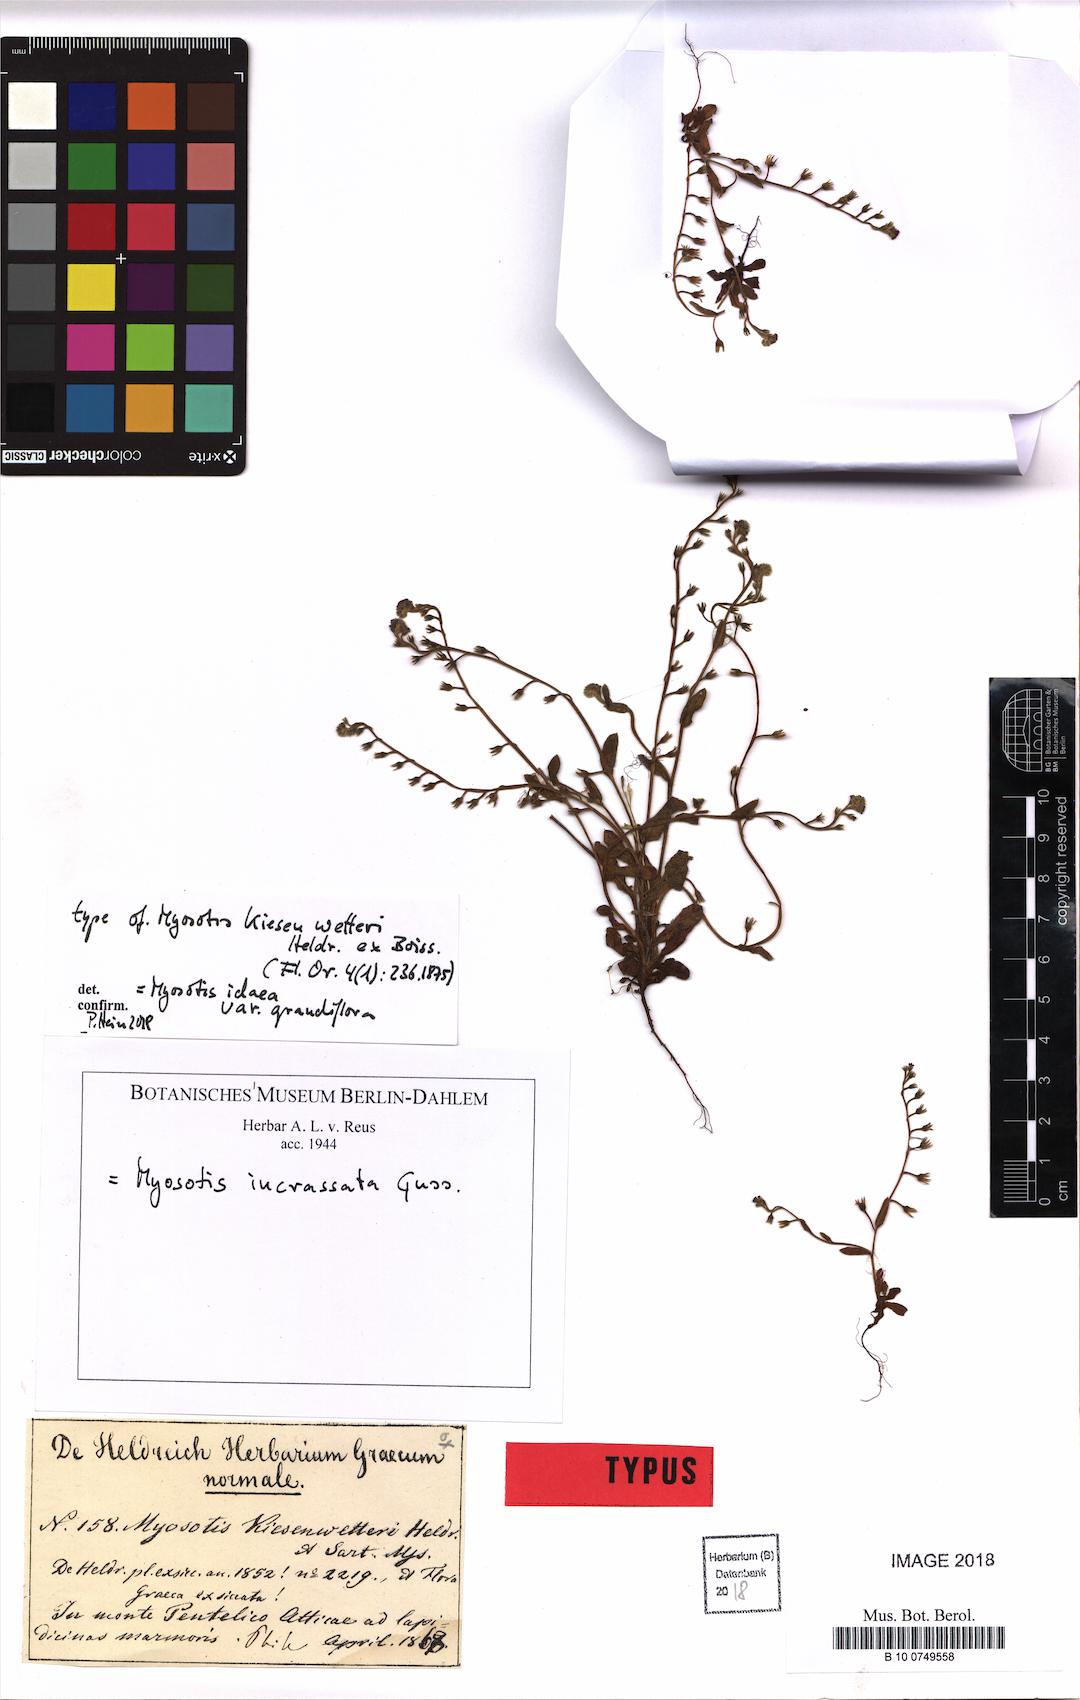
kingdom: Plantae
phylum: Tracheophyta
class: Magnoliopsida
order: Boraginales
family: Boraginaceae
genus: Myosotis
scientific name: Myosotis incrassata
